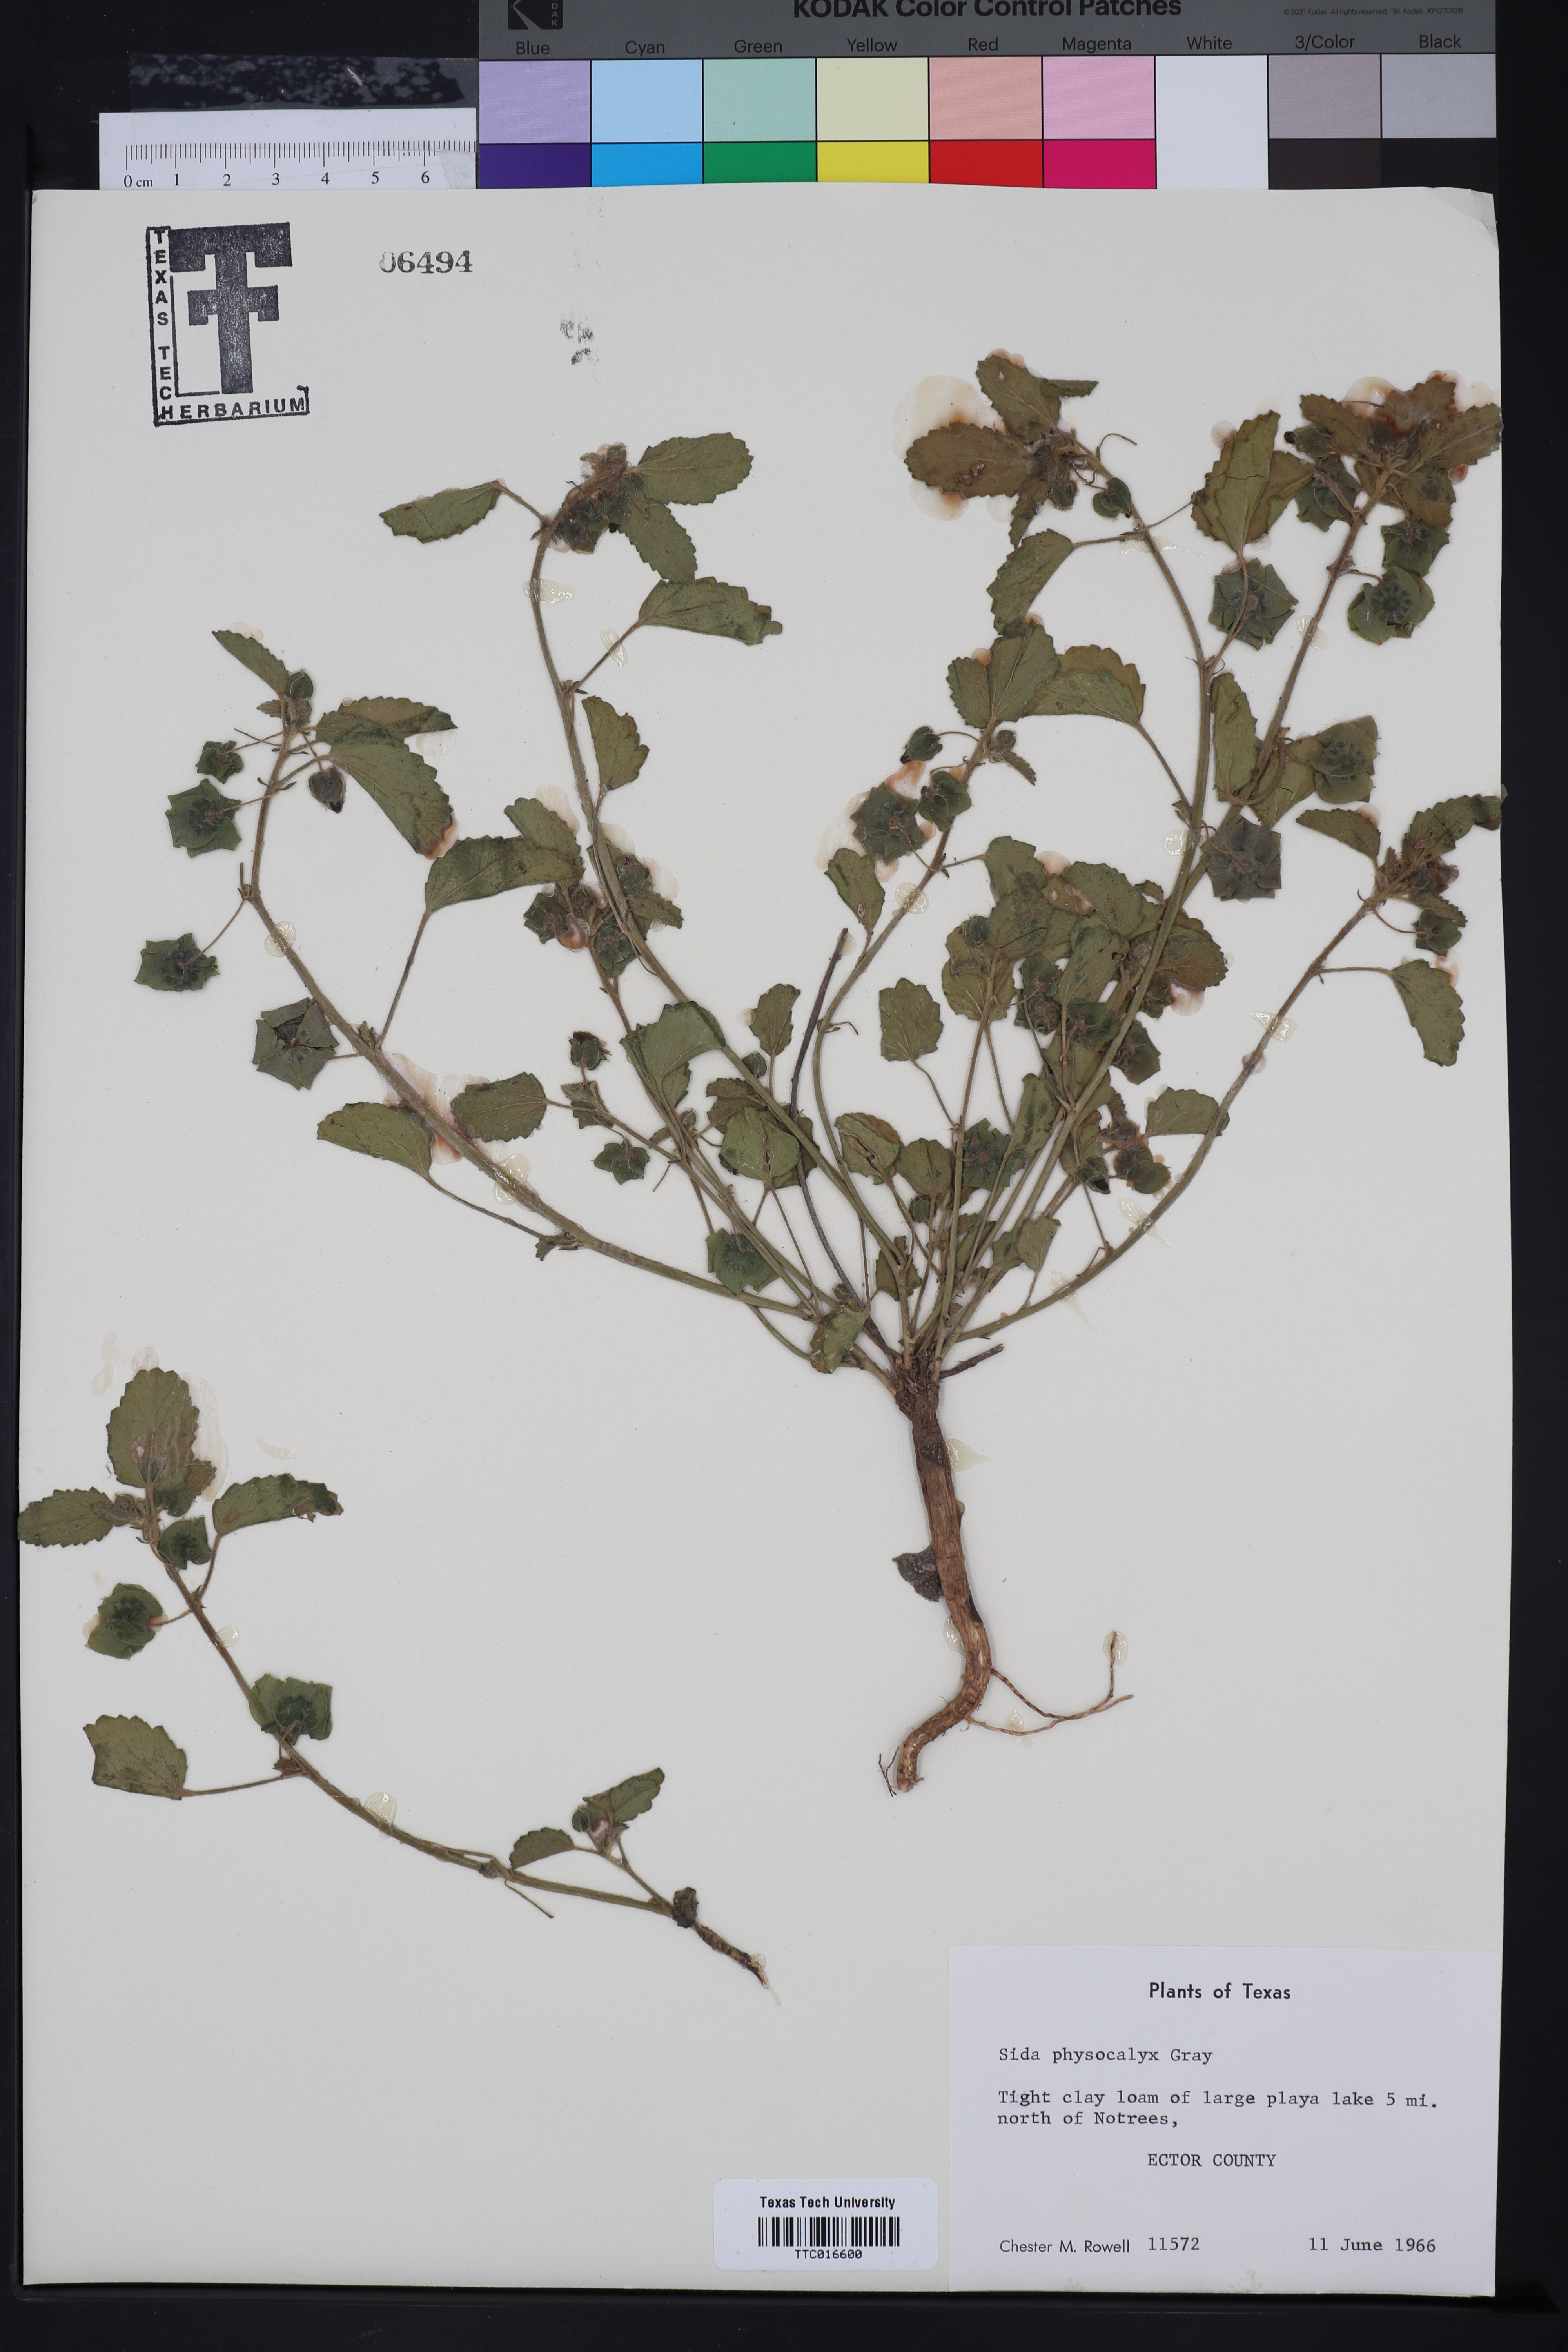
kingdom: Plantae
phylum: Tracheophyta
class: Magnoliopsida
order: Malvales
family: Malvaceae
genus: Rhynchosida
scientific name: Rhynchosida physocalyx
